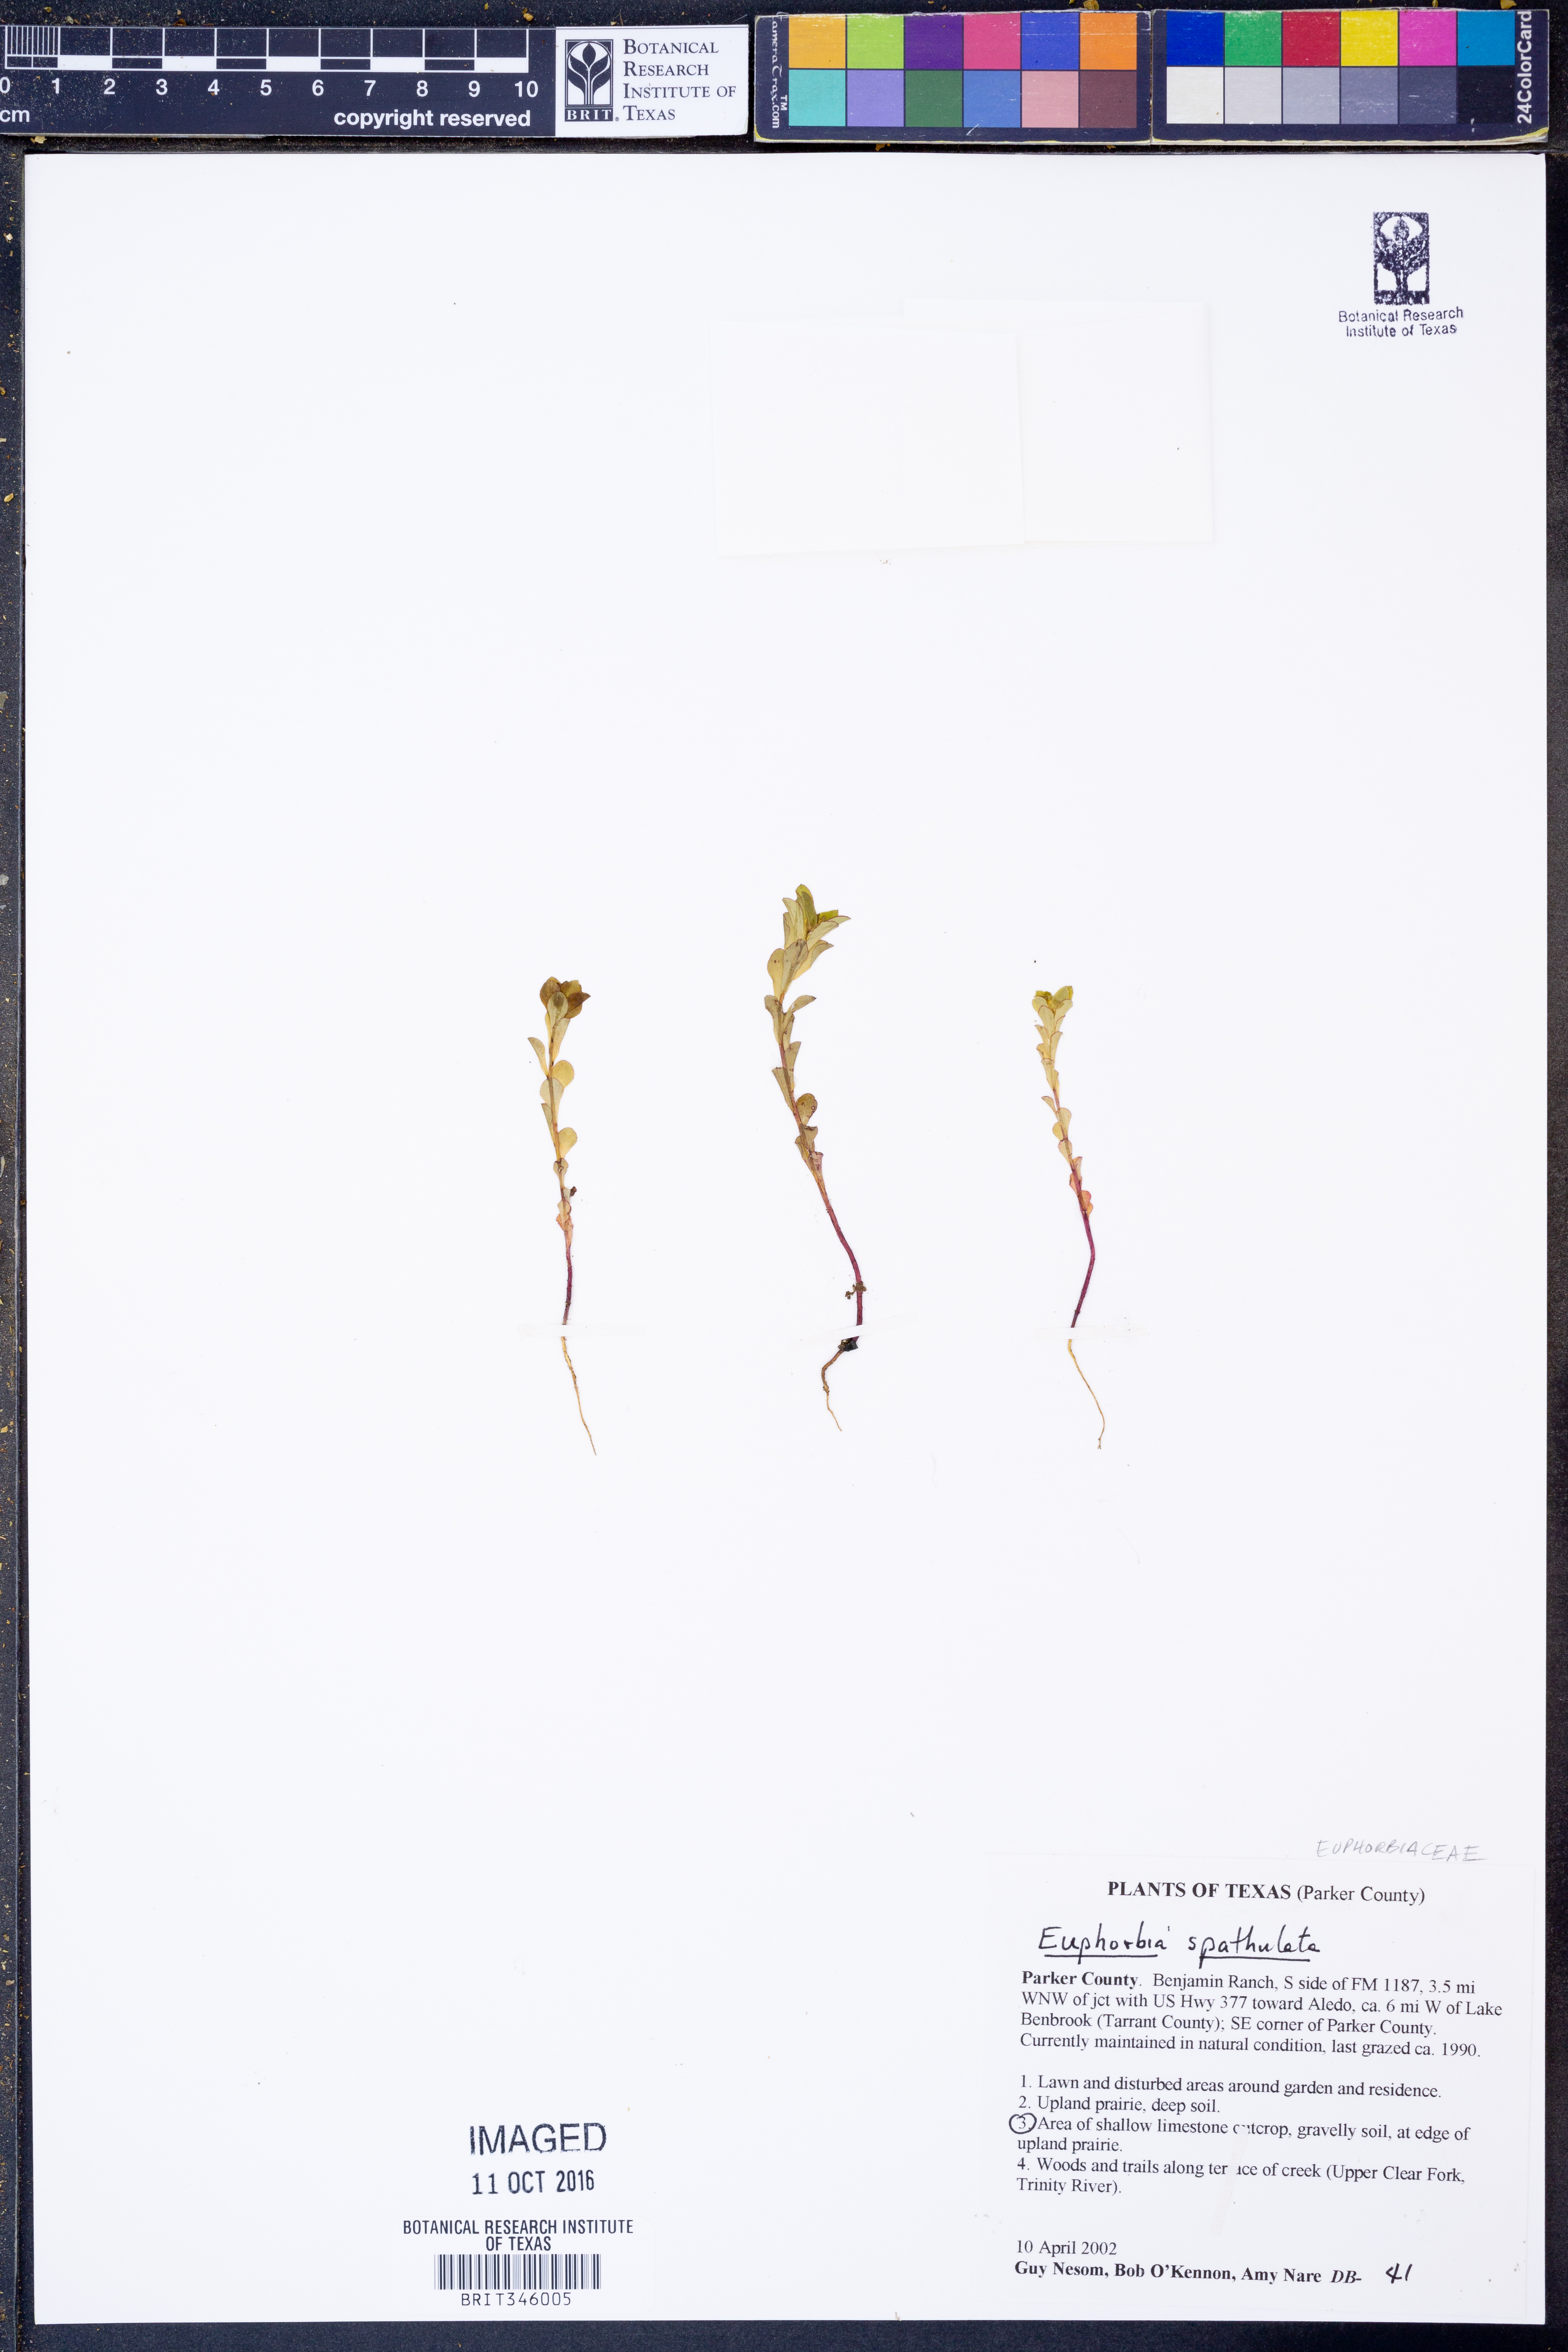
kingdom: Plantae
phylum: Tracheophyta
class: Magnoliopsida
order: Malpighiales
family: Euphorbiaceae
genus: Euphorbia
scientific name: Euphorbia spathulata
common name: Blunt spurge
